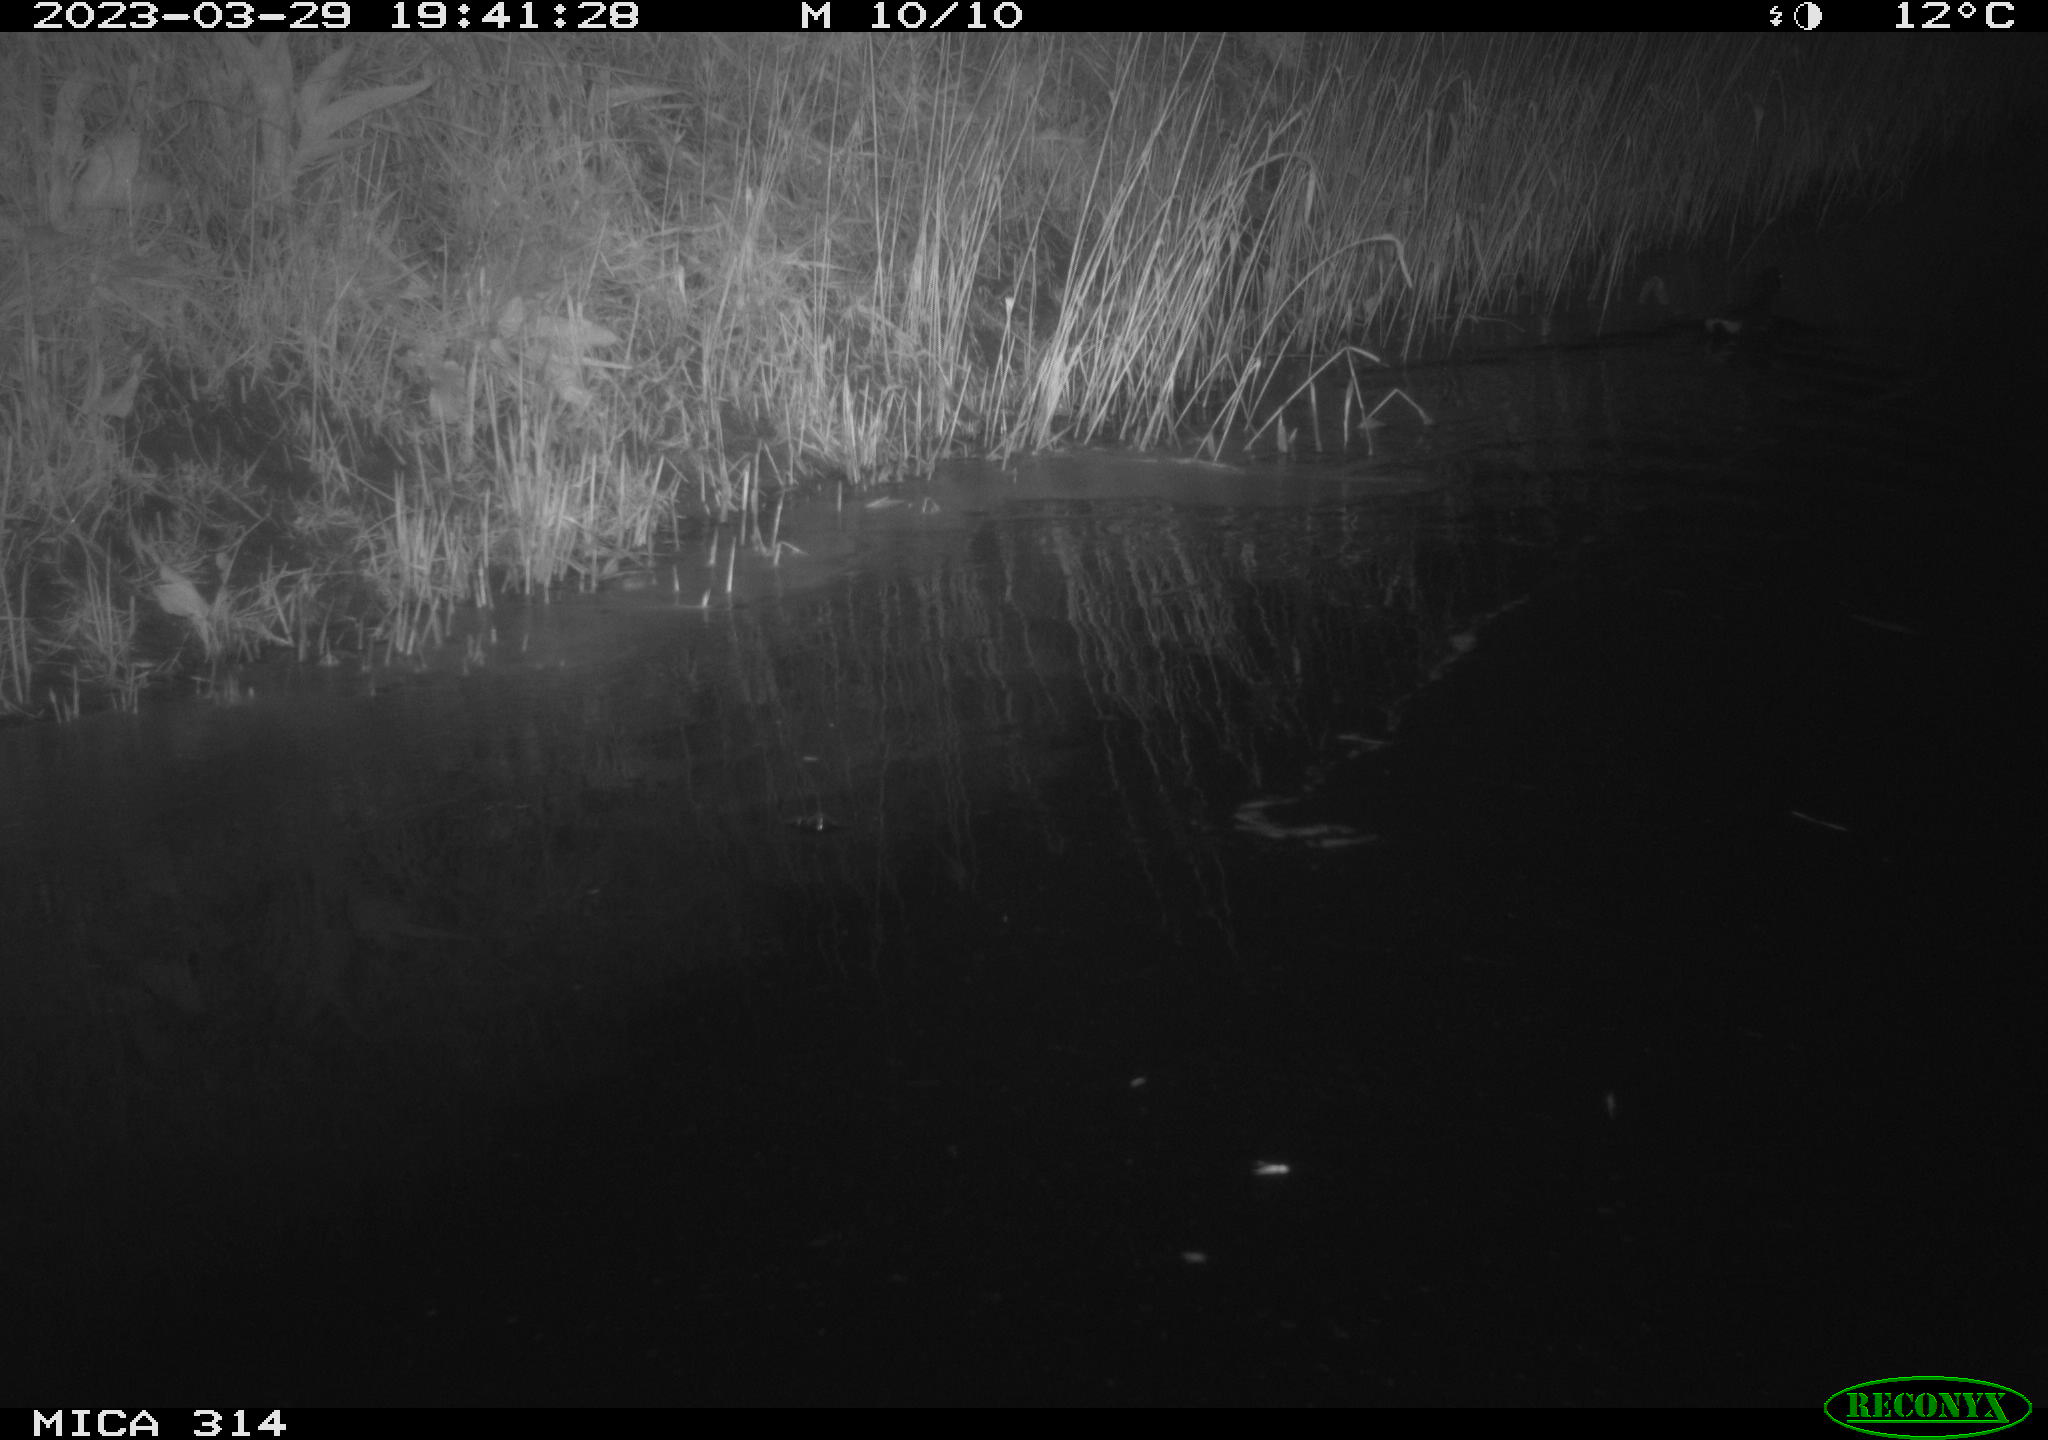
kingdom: Animalia
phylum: Chordata
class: Aves
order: Gruiformes
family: Rallidae
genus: Gallinula
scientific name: Gallinula chloropus
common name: Common moorhen
